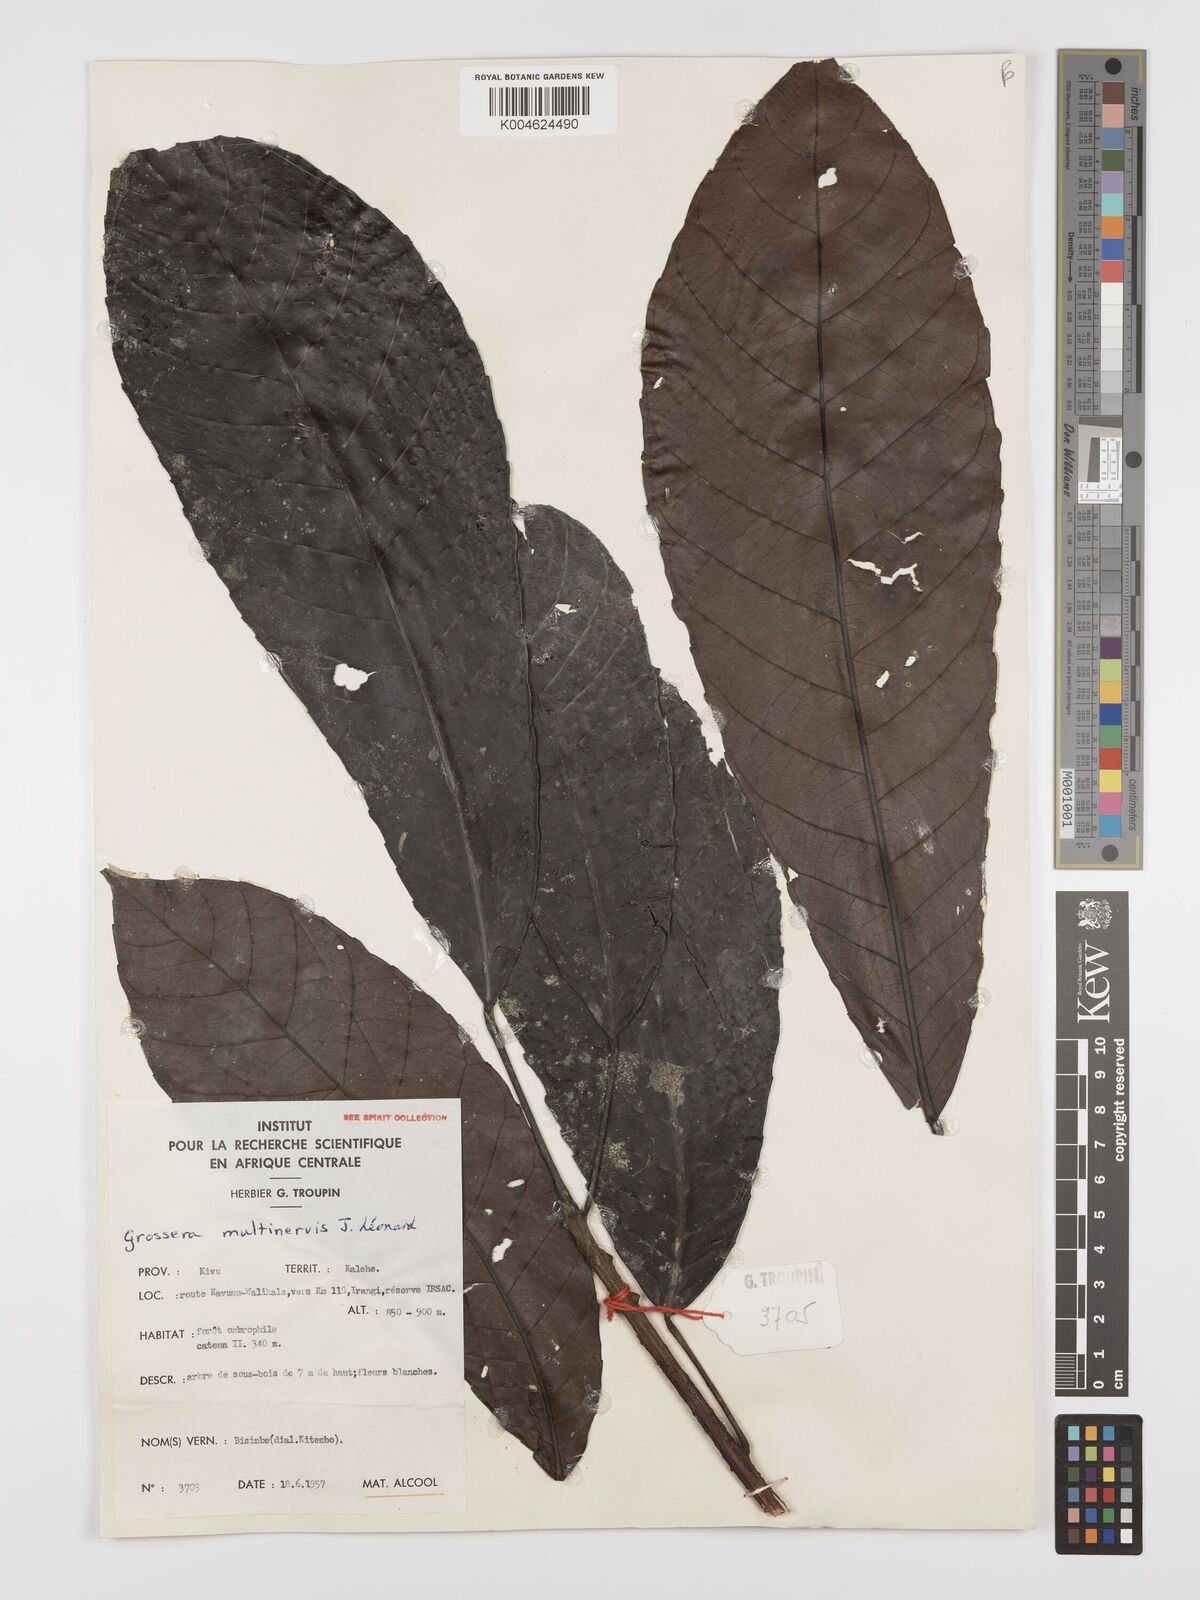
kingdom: Plantae
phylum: Tracheophyta
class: Magnoliopsida
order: Malpighiales
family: Euphorbiaceae
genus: Grossera
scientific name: Grossera multinervis
